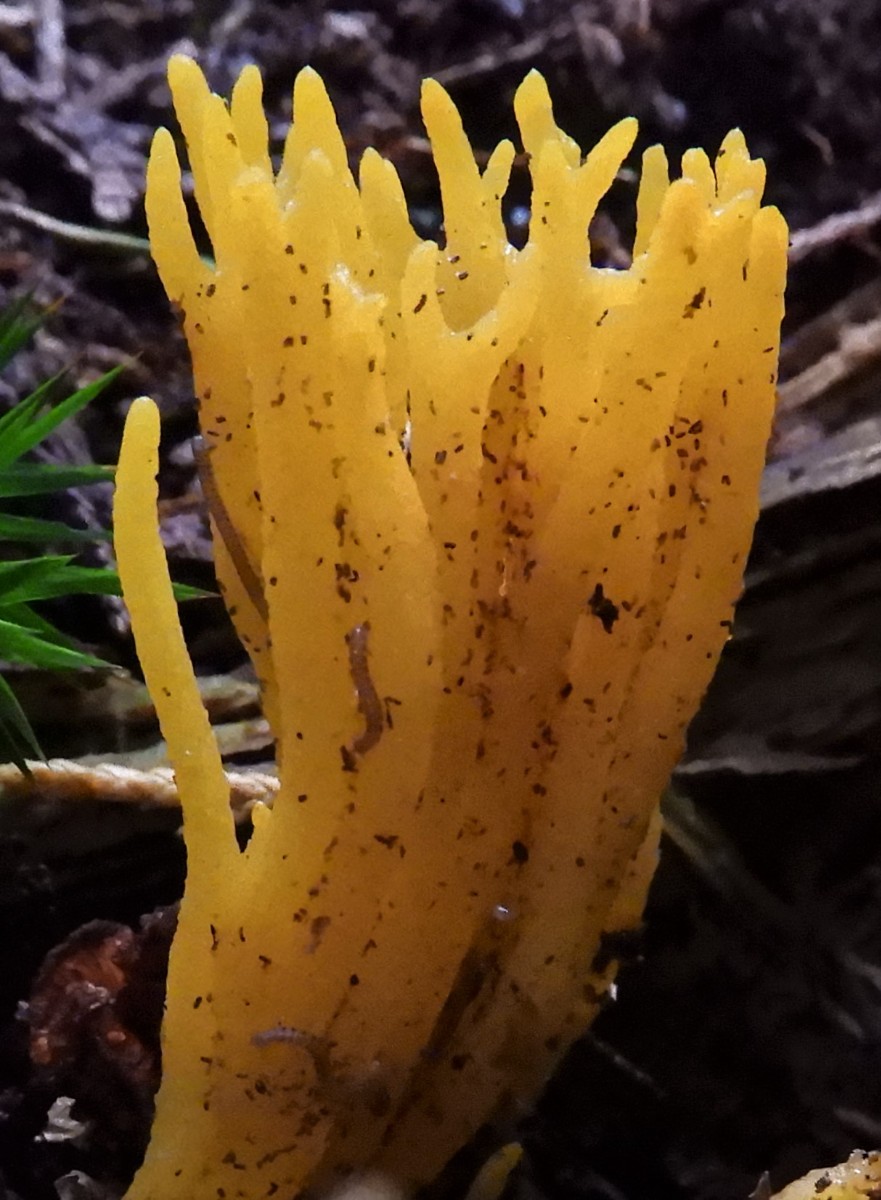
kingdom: Fungi
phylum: Basidiomycota
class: Dacrymycetes
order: Dacrymycetales
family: Dacrymycetaceae
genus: Calocera
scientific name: Calocera viscosa
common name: almindelig guldgaffel
